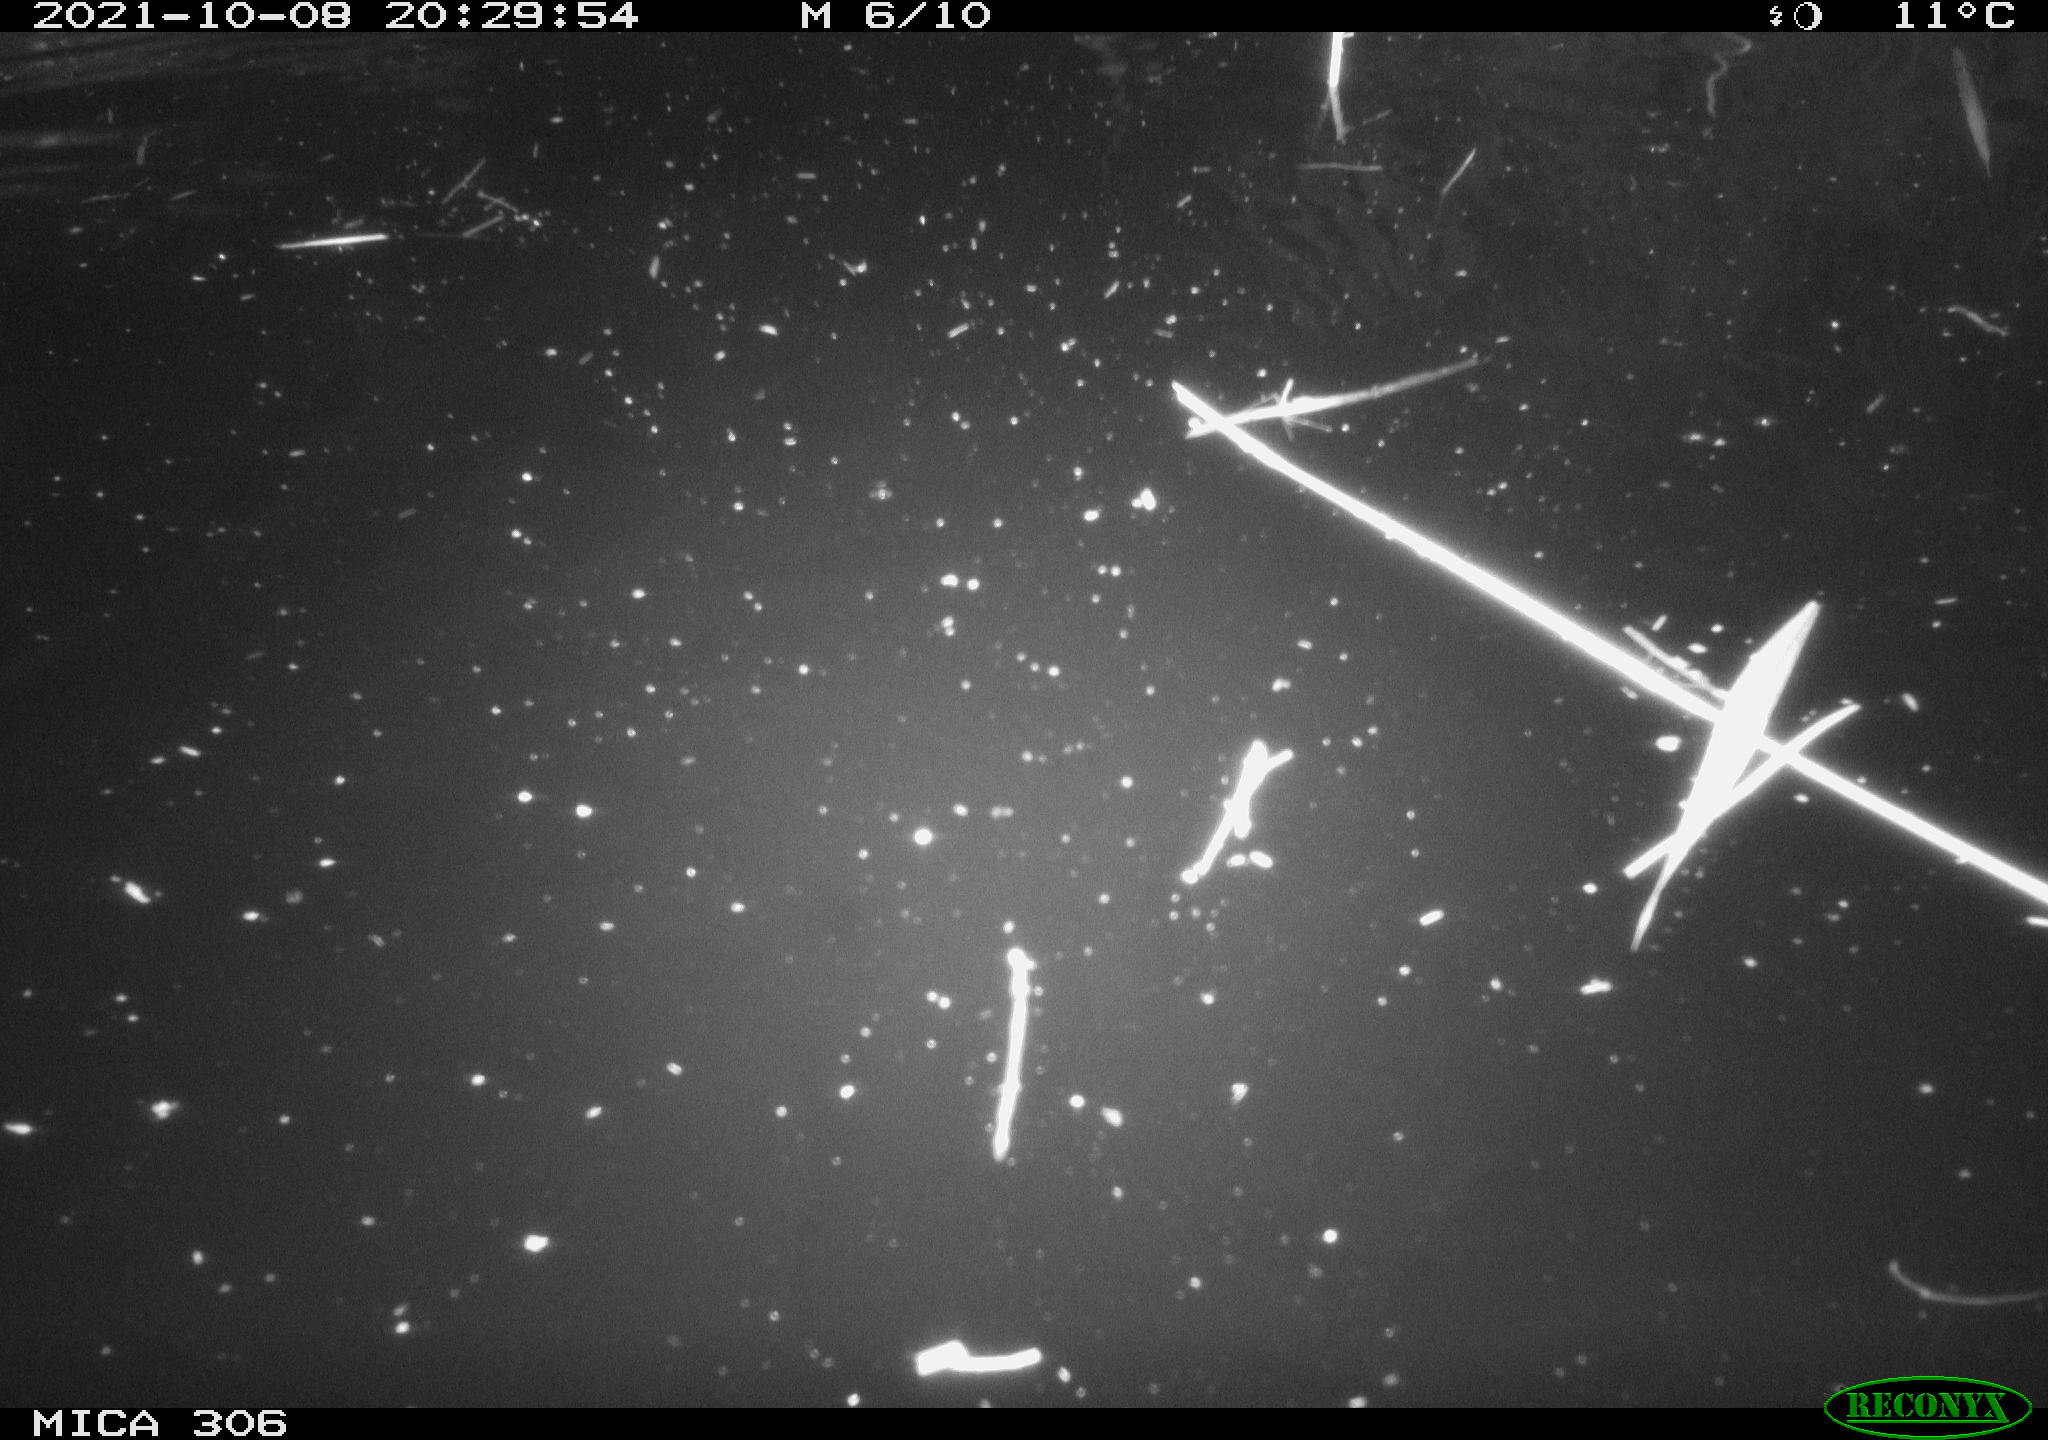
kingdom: Animalia
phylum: Chordata
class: Mammalia
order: Rodentia
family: Cricetidae
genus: Ondatra
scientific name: Ondatra zibethicus
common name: Muskrat
